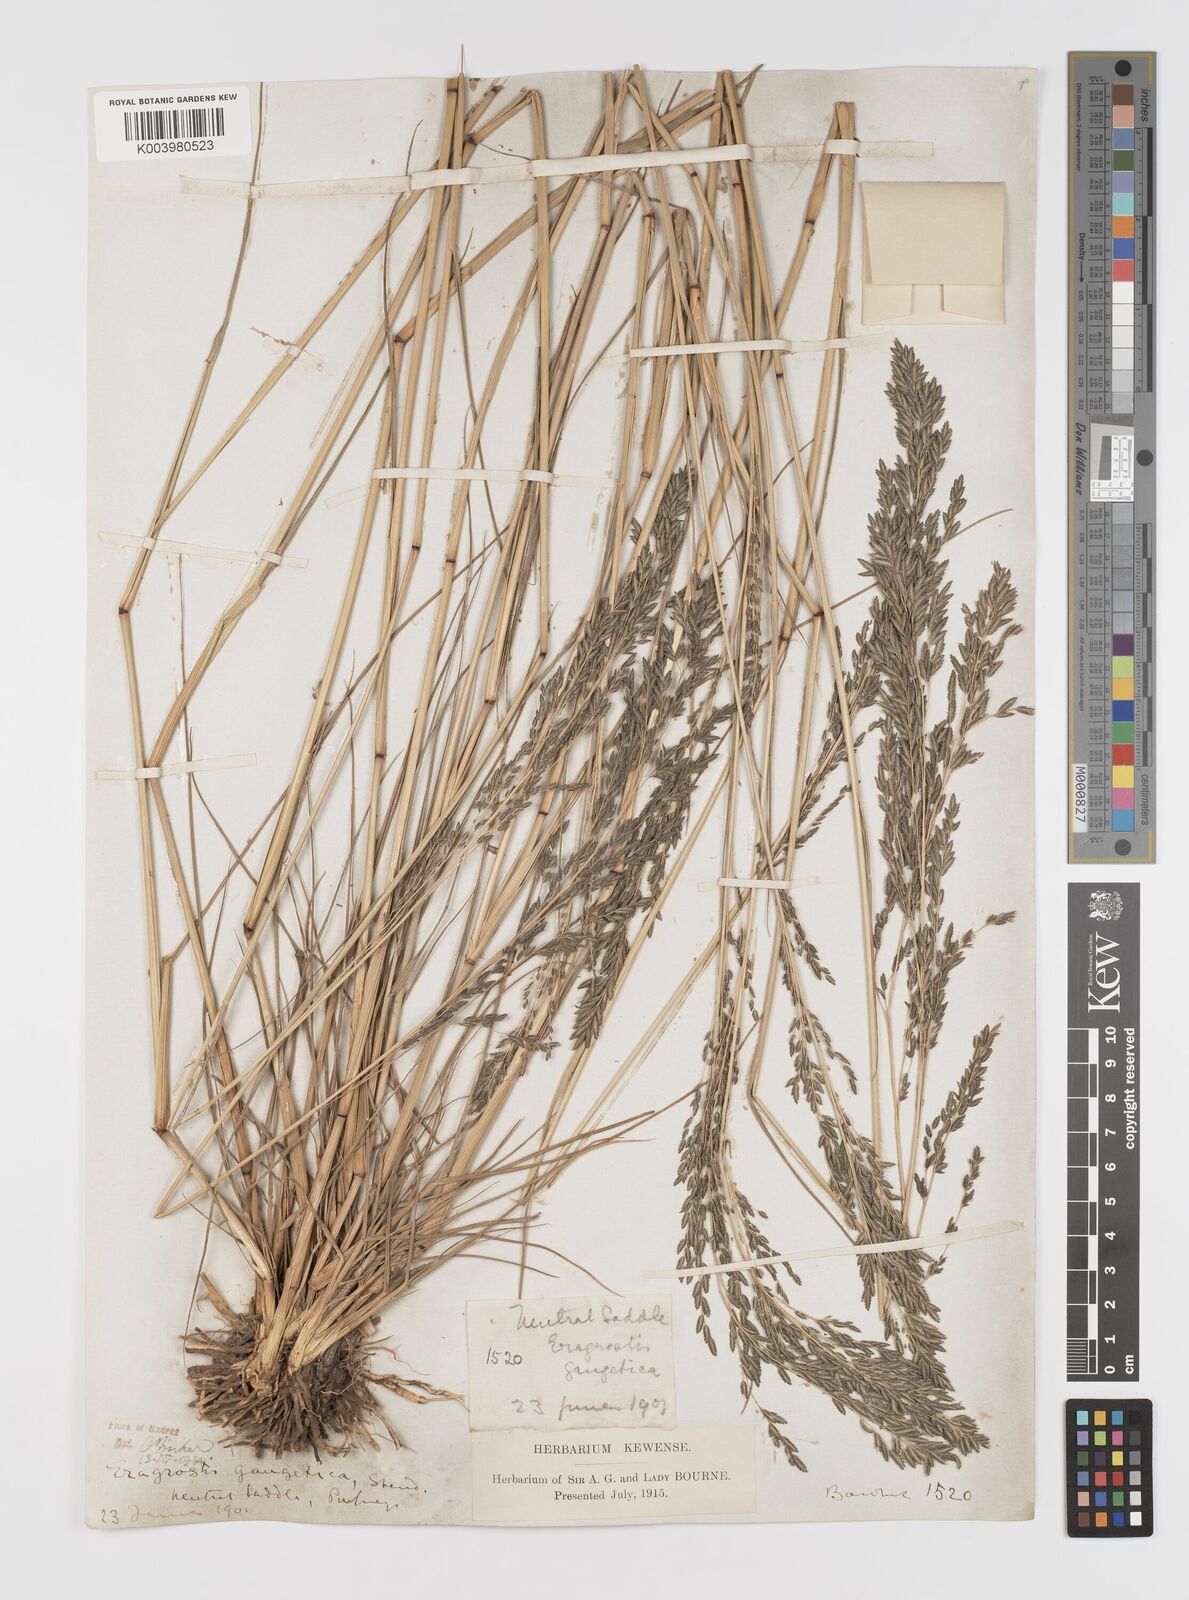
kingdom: Plantae
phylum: Tracheophyta
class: Liliopsida
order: Poales
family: Poaceae
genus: Eragrostis
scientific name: Eragrostis
